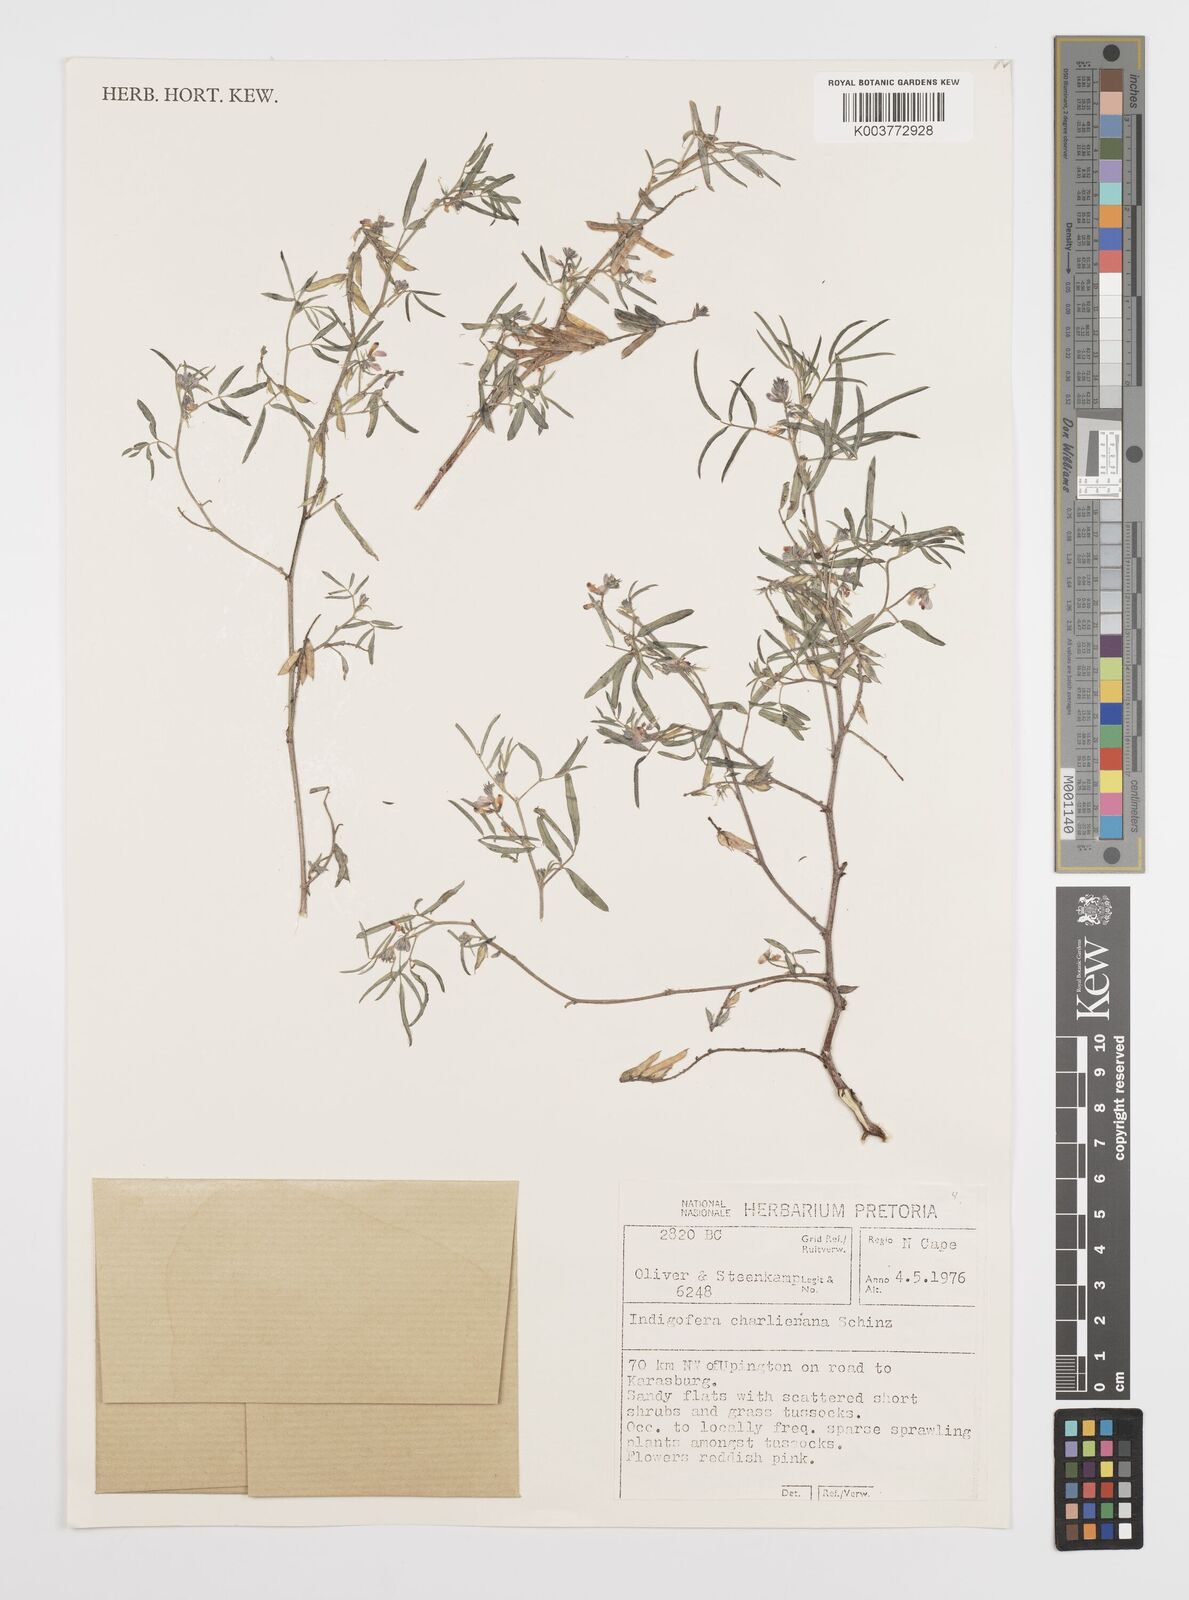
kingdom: Plantae
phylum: Tracheophyta
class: Magnoliopsida
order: Fabales
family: Fabaceae
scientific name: Fabaceae
